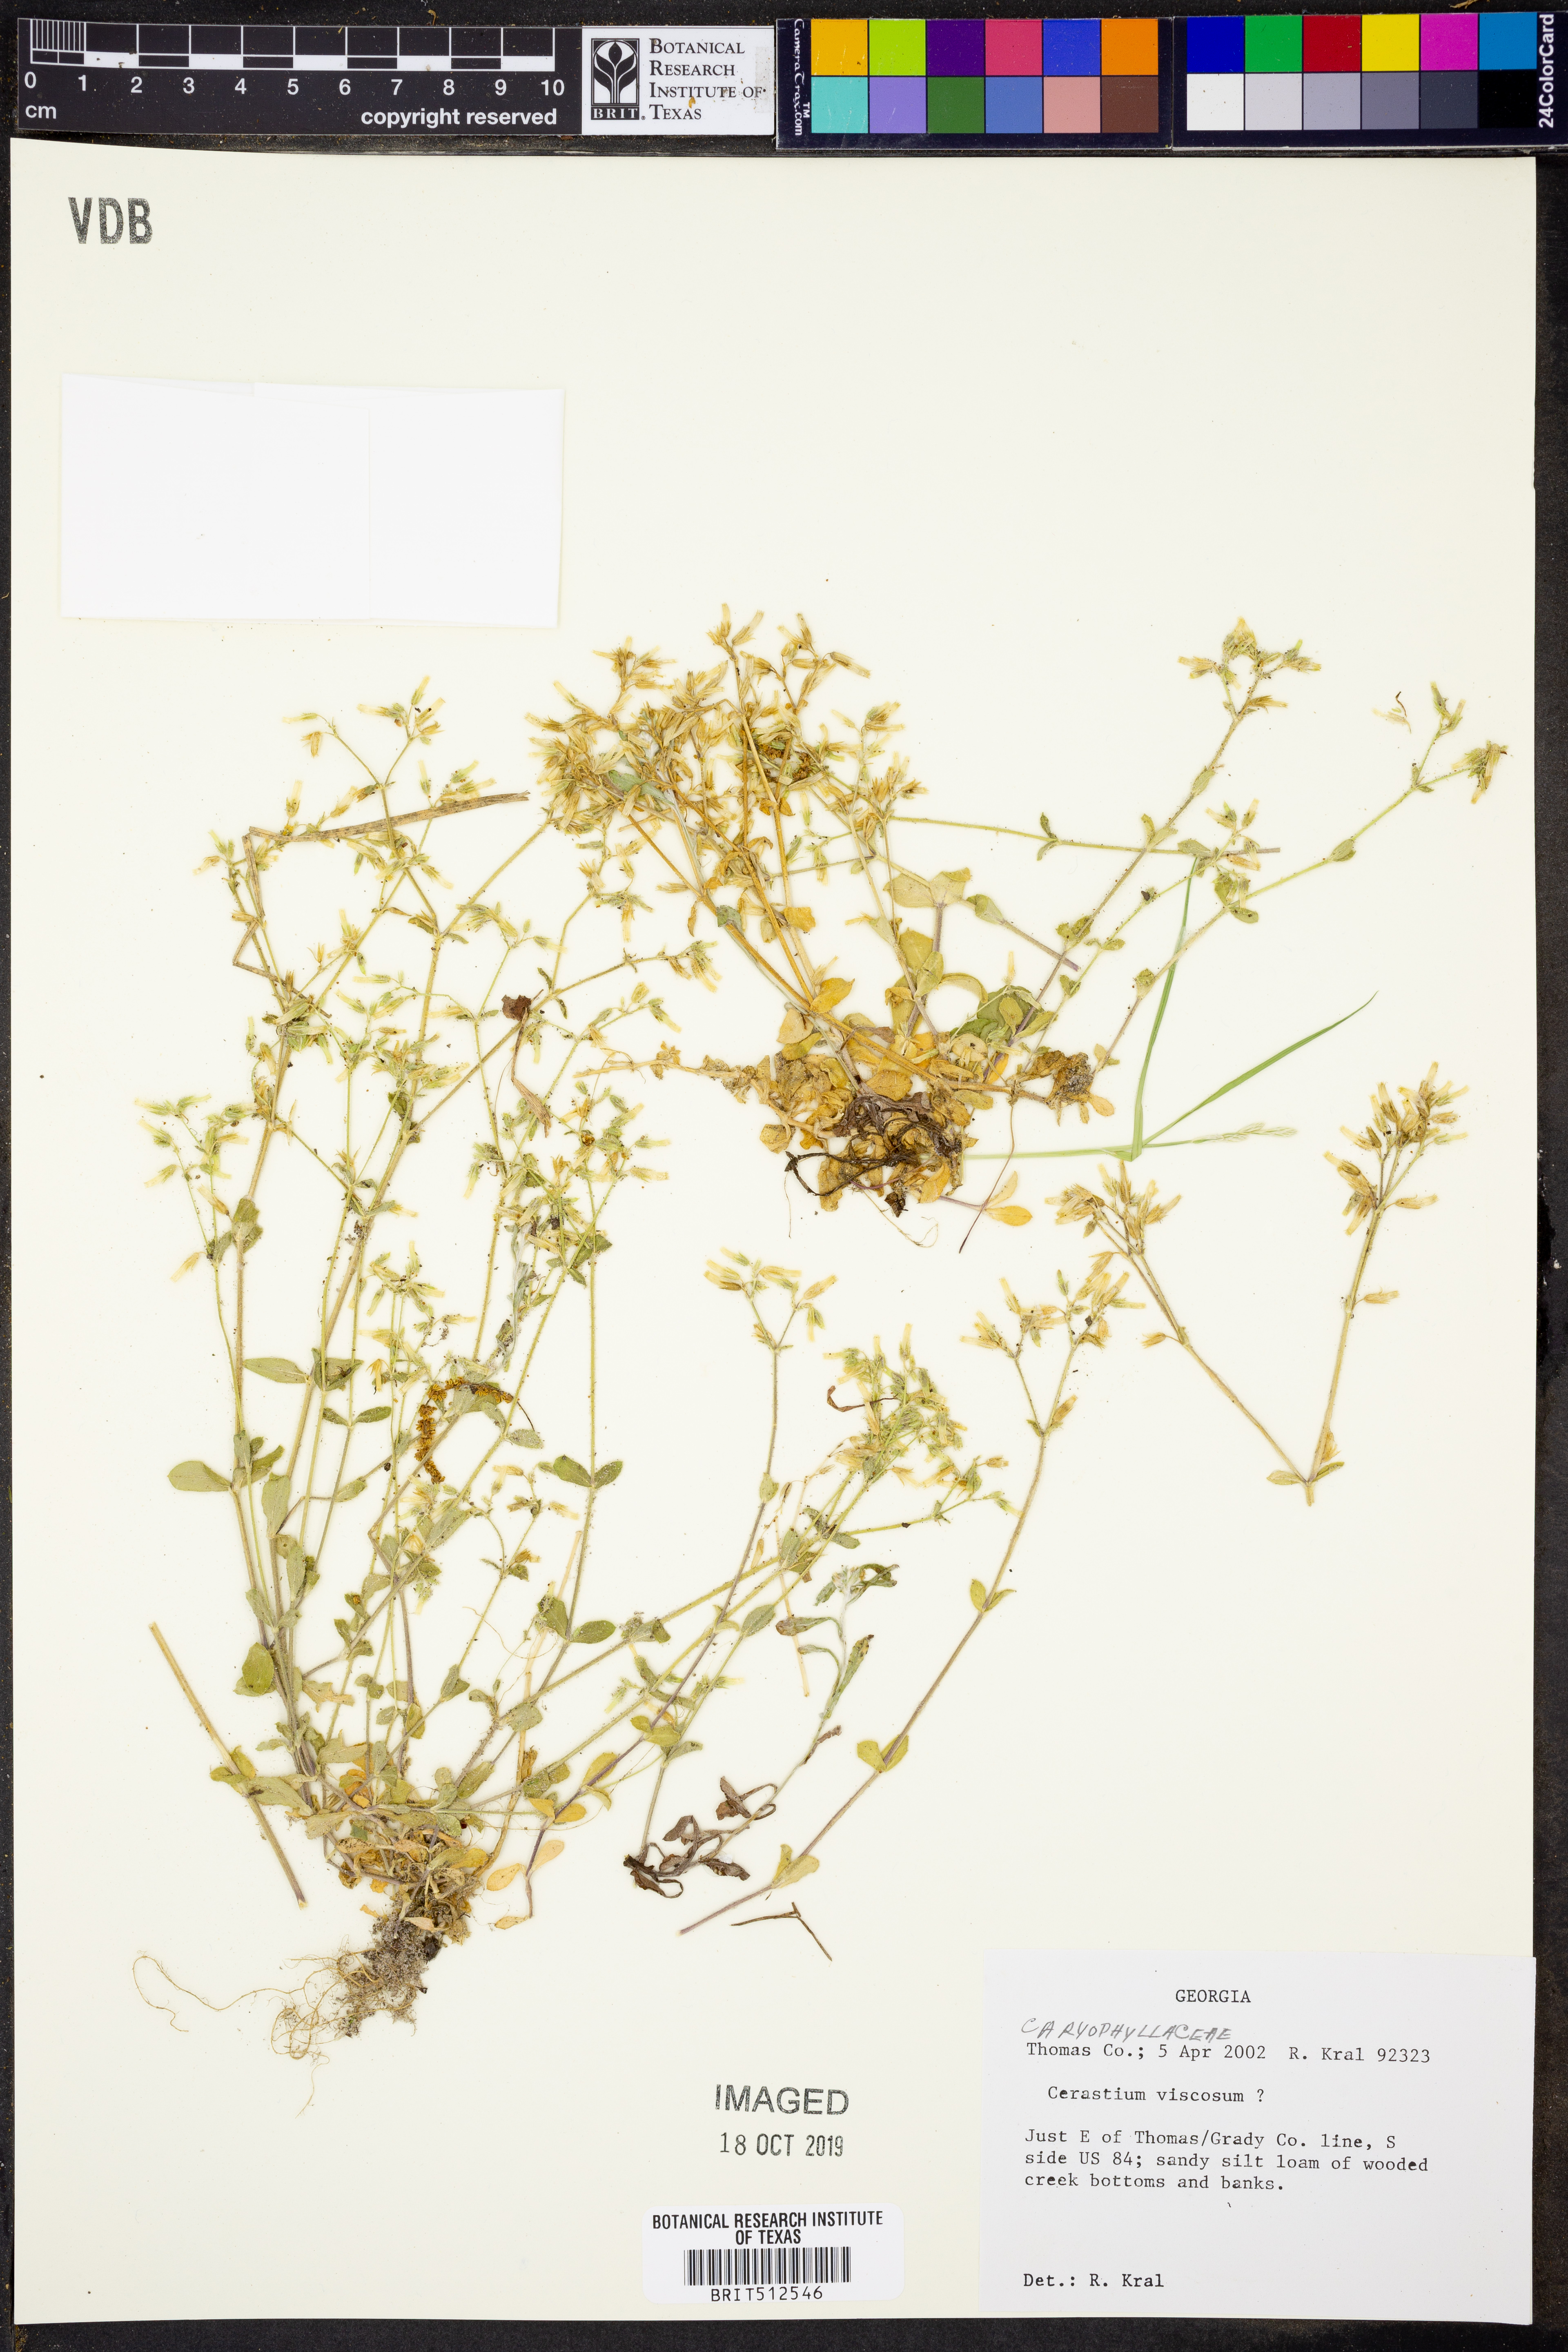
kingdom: Plantae
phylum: Tracheophyta
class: Magnoliopsida
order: Caryophyllales
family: Caryophyllaceae
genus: Cerastium
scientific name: Cerastium holosteoides
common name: Big chickweed
